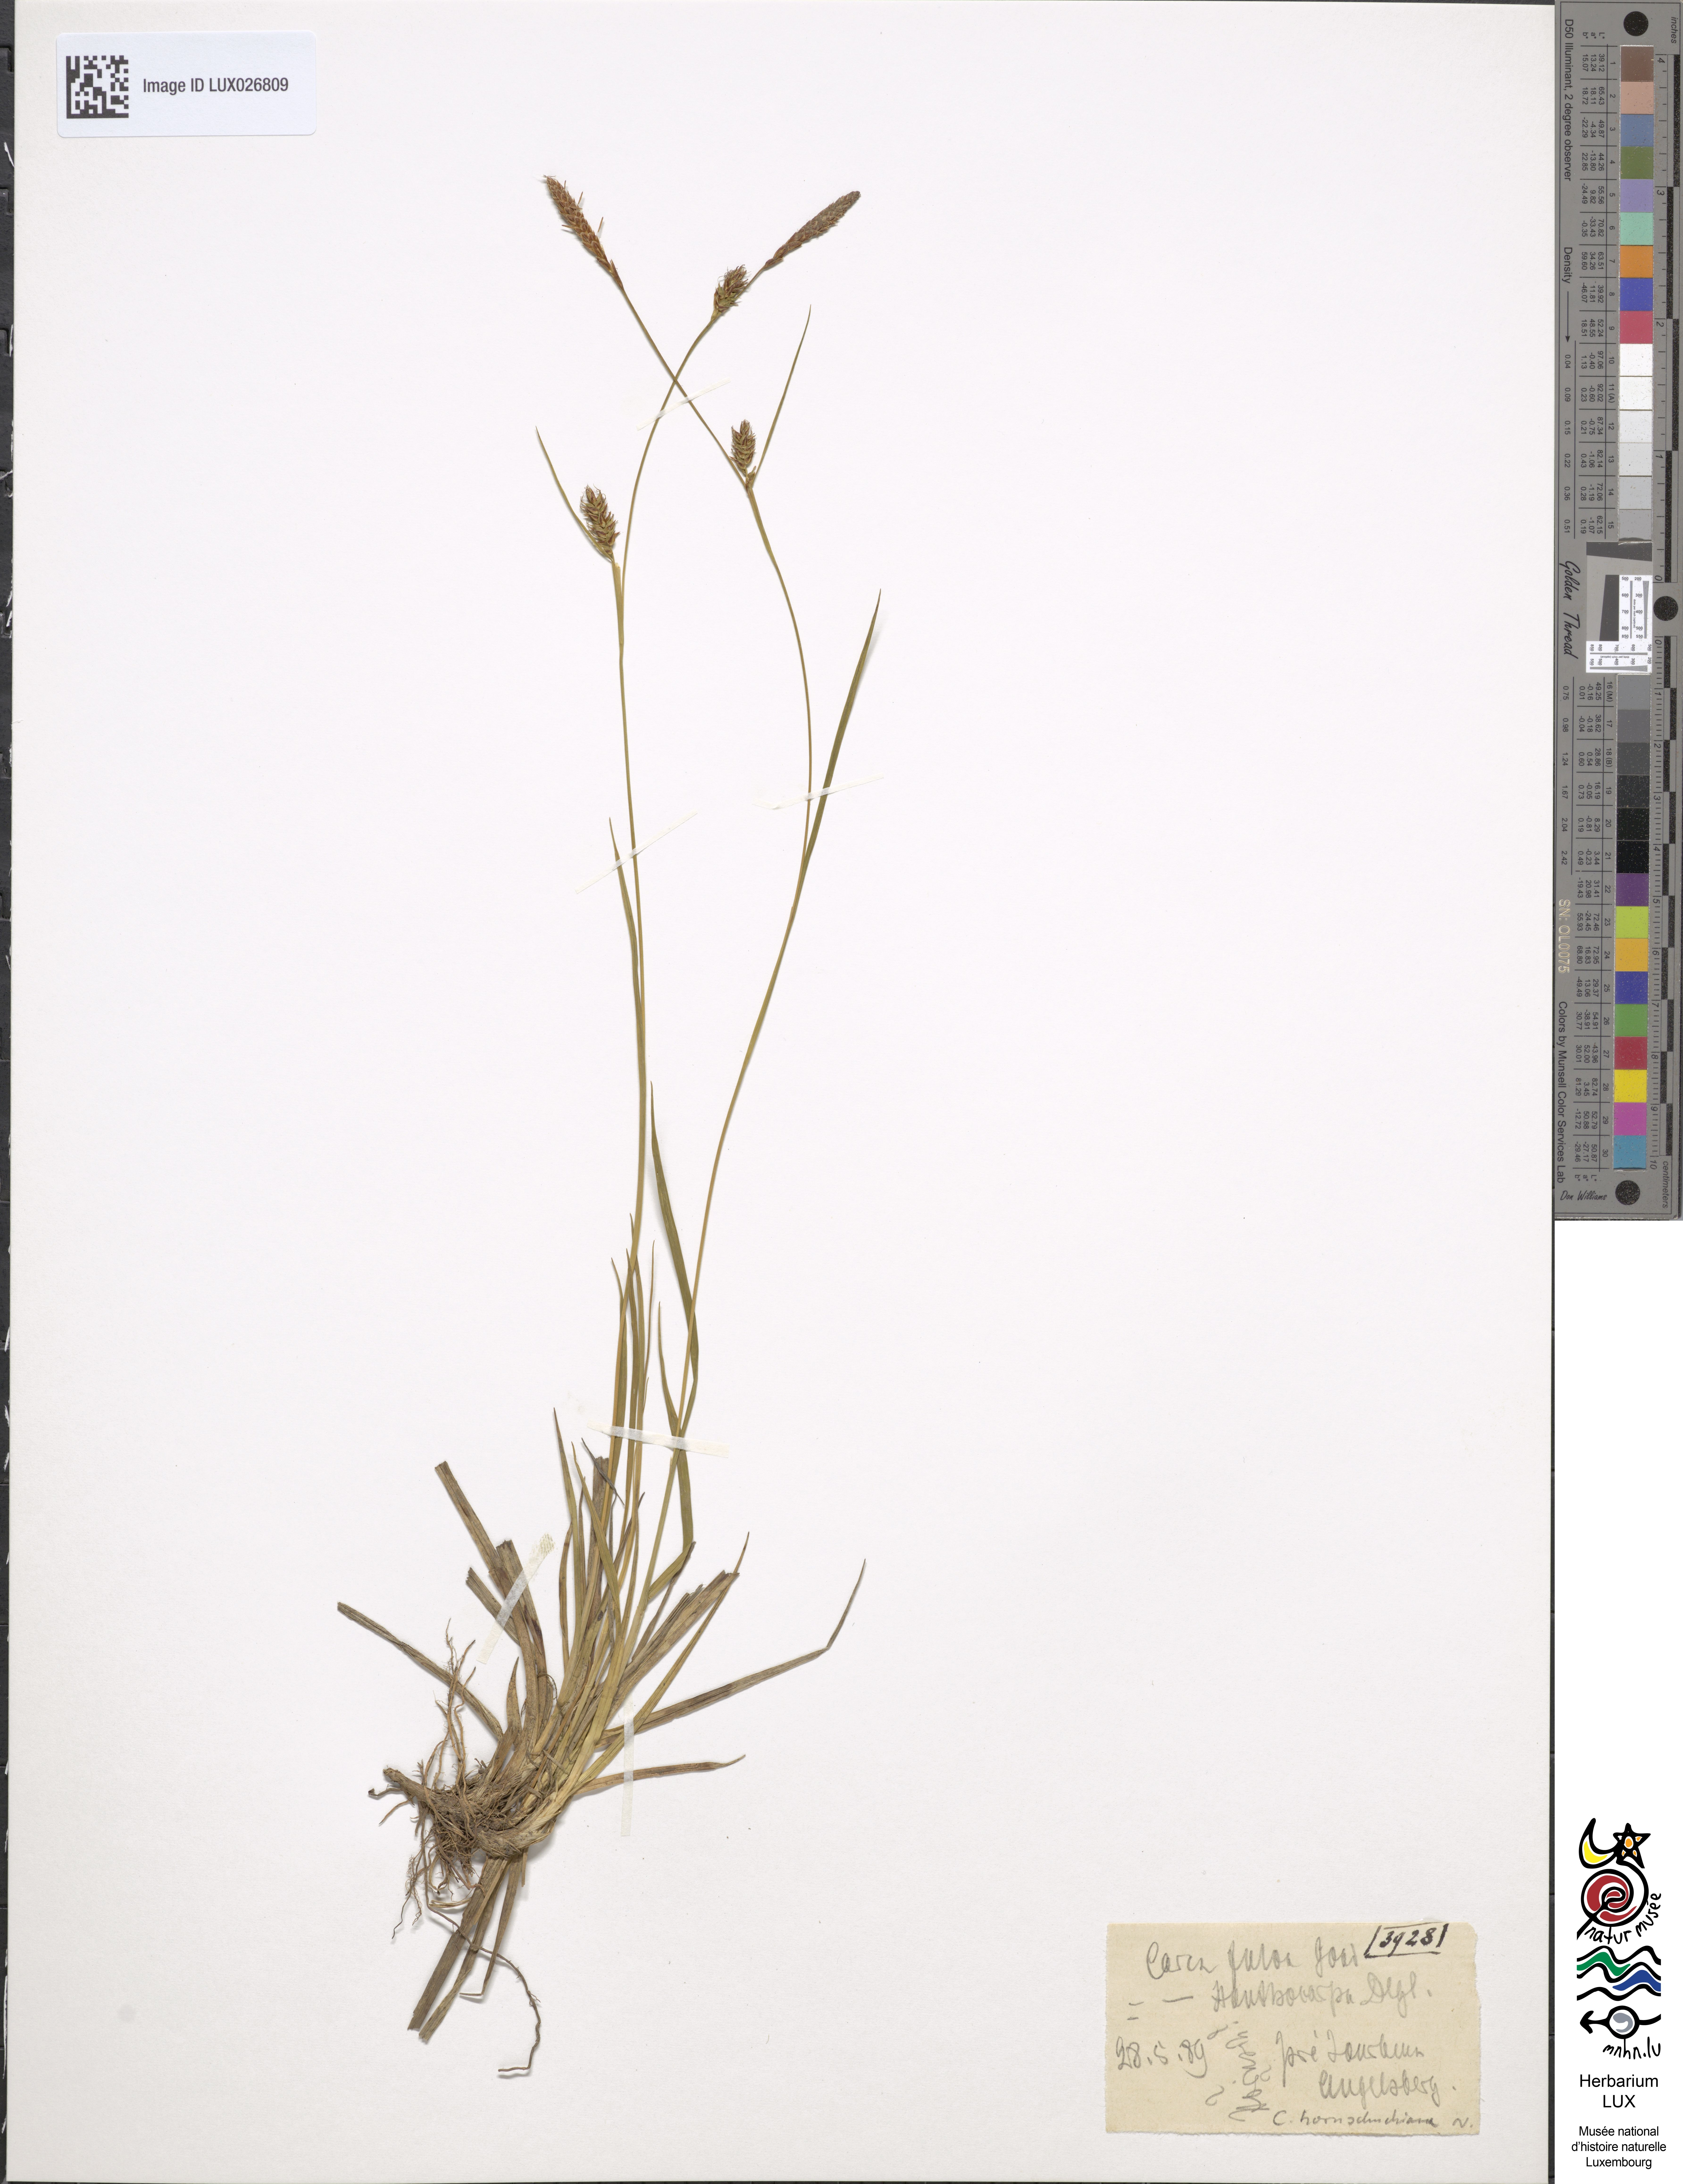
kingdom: Plantae
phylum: Tracheophyta
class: Liliopsida
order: Poales
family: Cyperaceae
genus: Carex
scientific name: Carex fulva
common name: Leutz's sedge
